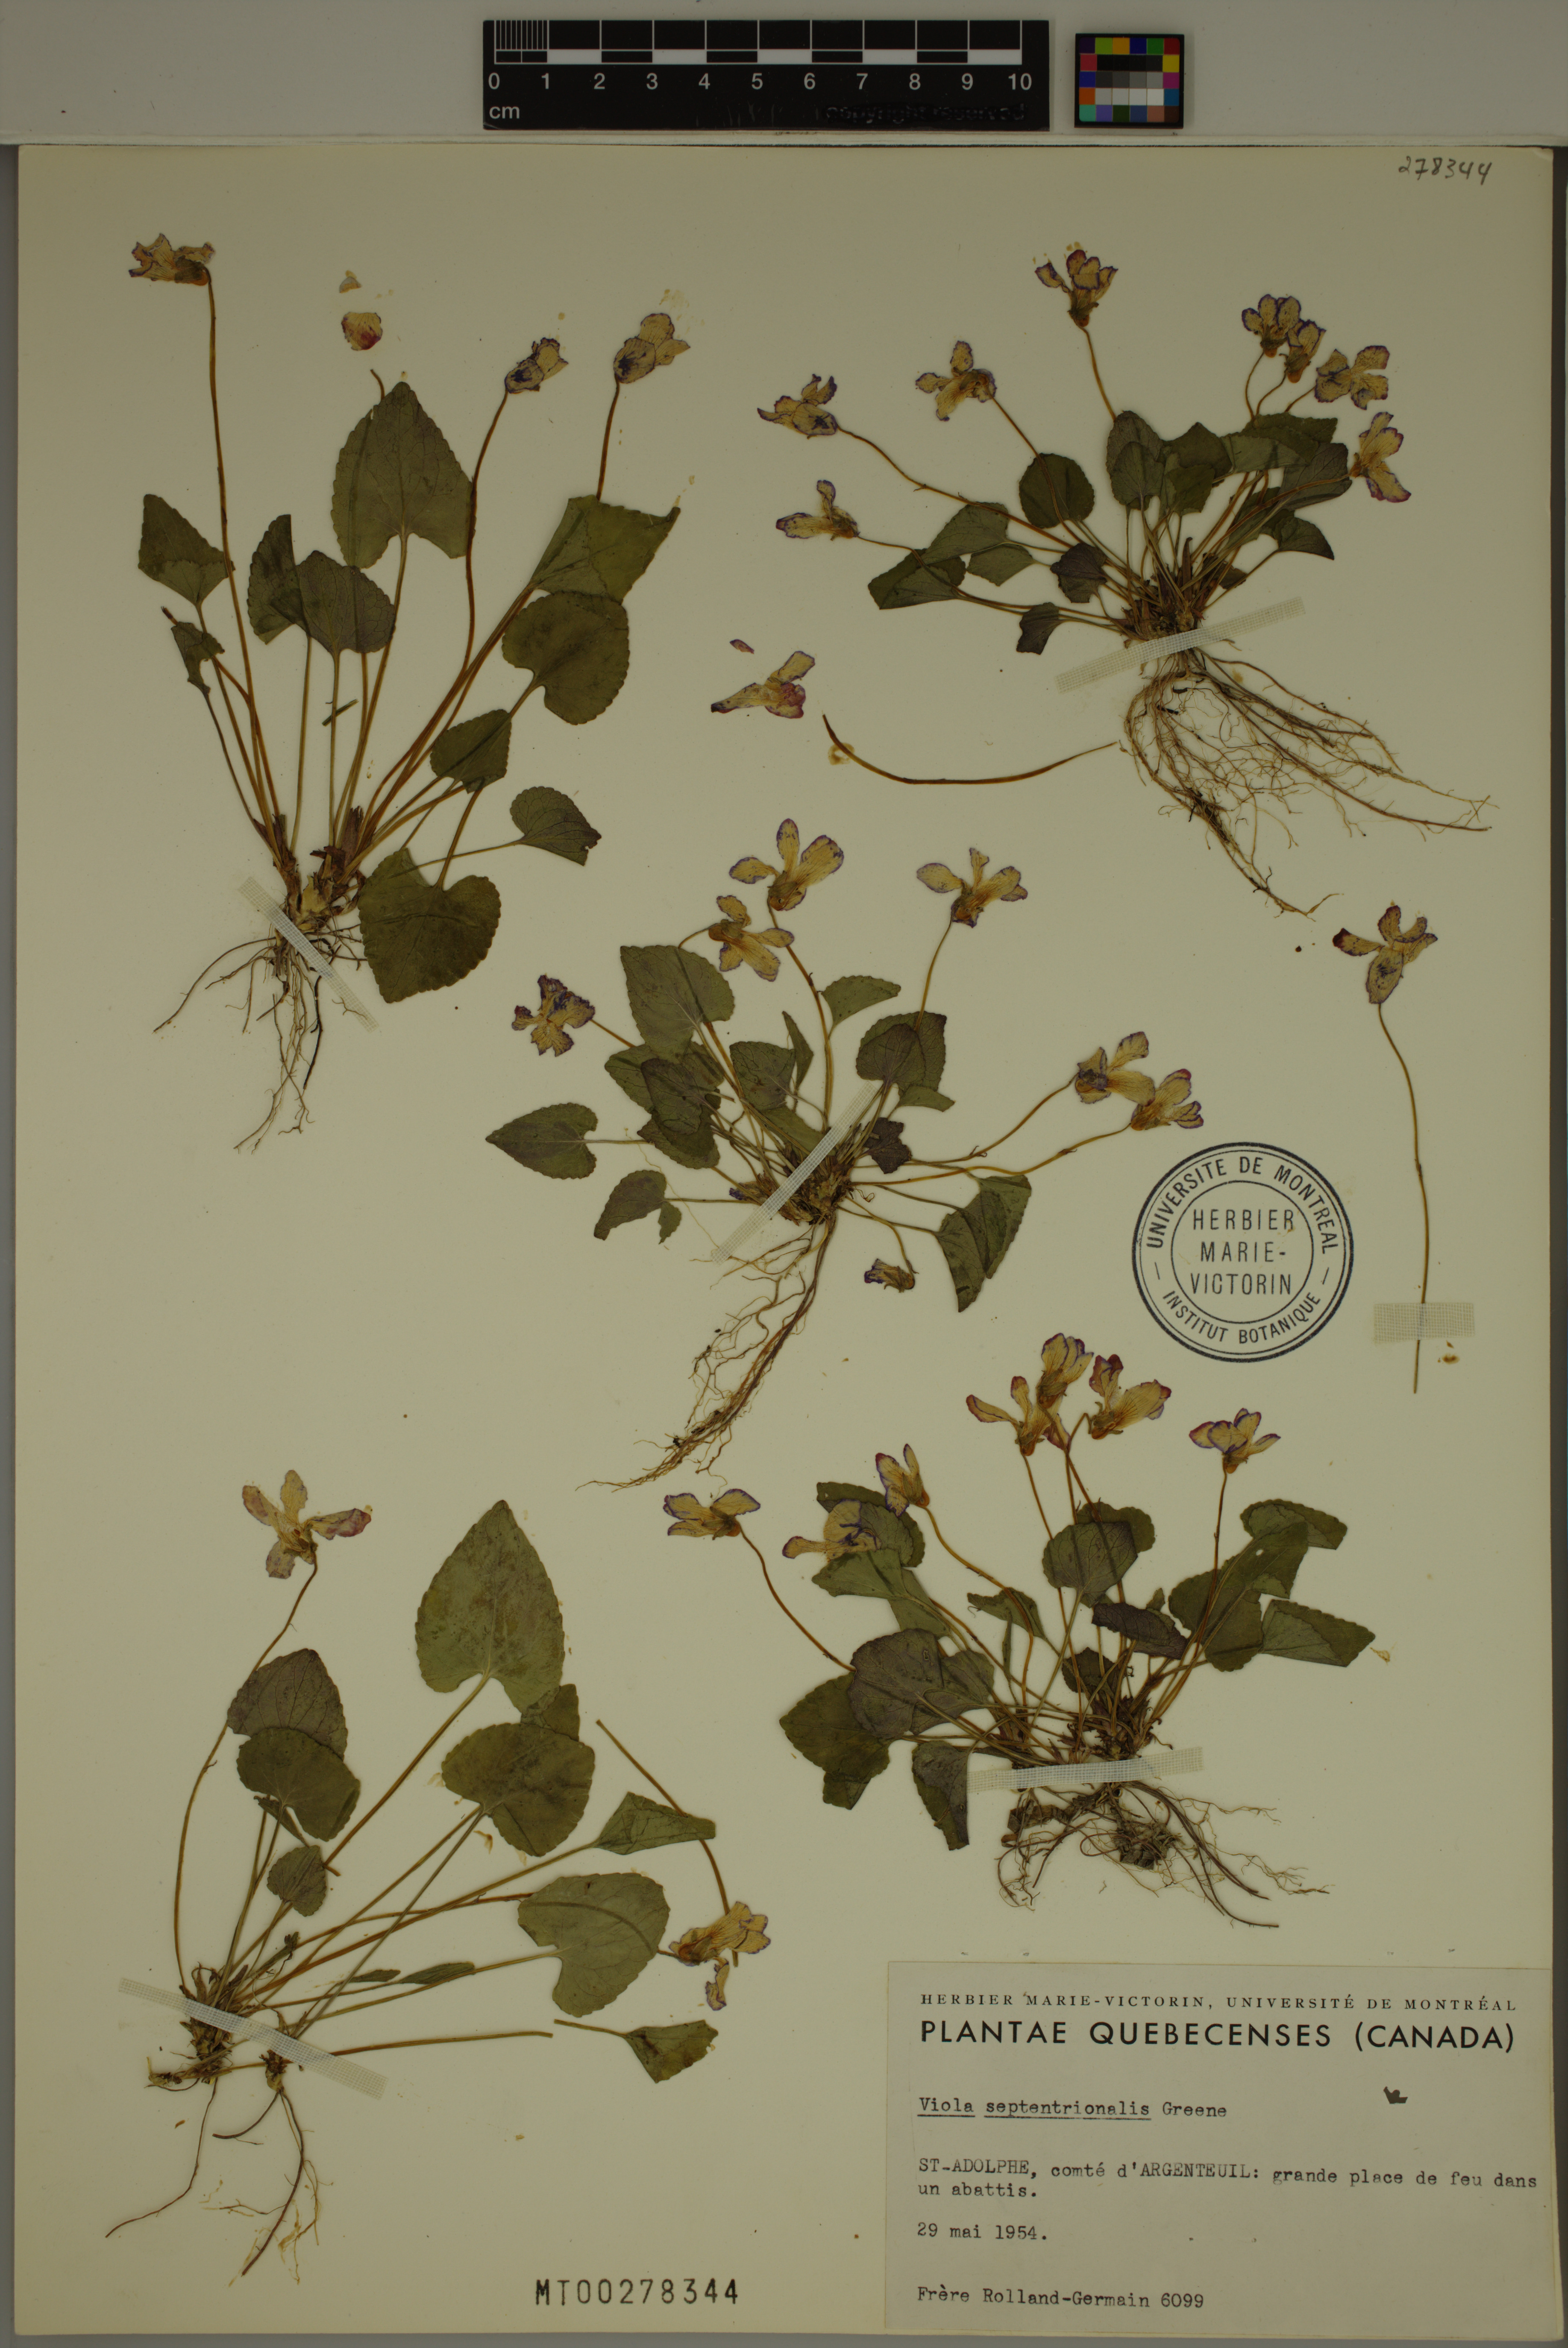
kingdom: Plantae
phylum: Tracheophyta
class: Magnoliopsida
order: Malpighiales
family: Violaceae
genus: Viola
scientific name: Viola septentrionalis
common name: Northern woodland violet
